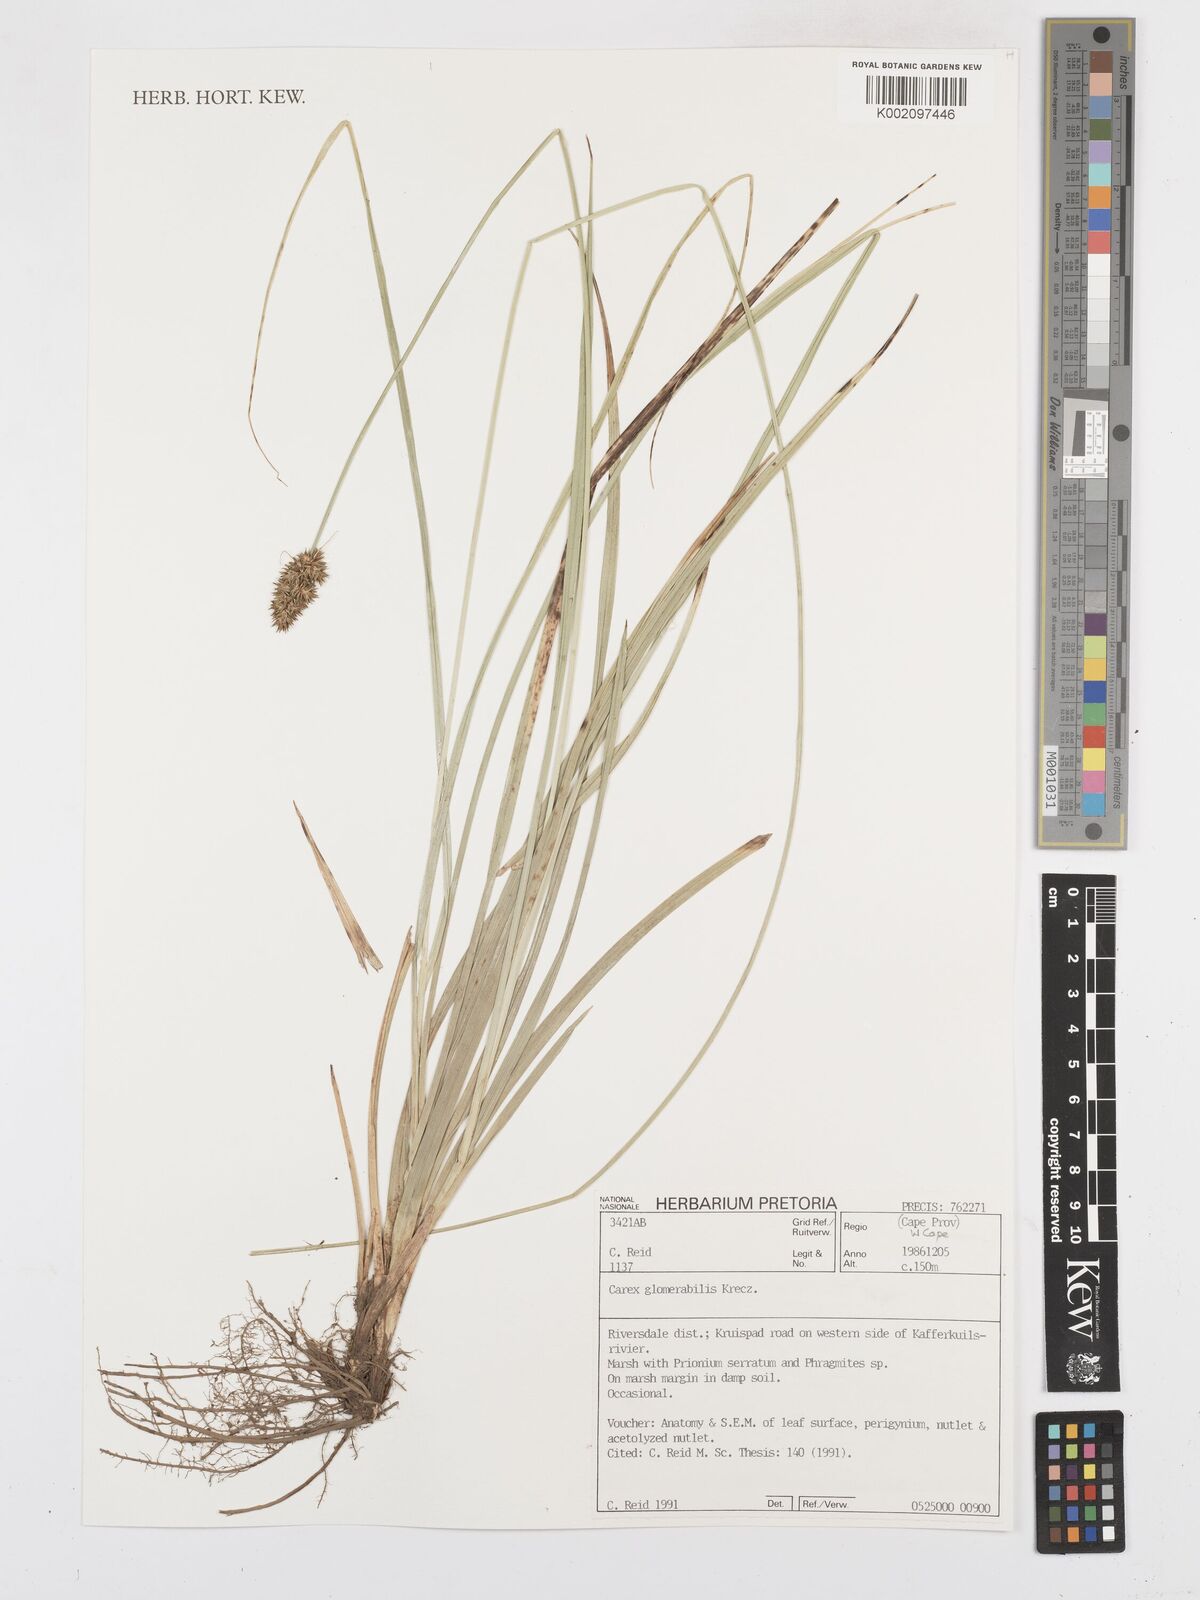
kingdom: Plantae
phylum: Tracheophyta
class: Liliopsida
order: Poales
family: Cyperaceae
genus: Carex
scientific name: Carex glomerata
